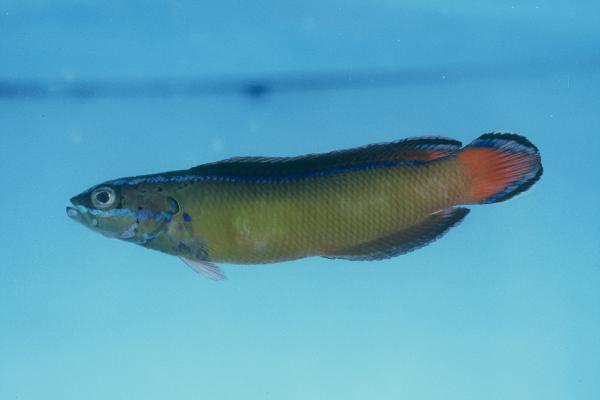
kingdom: Animalia
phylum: Chordata
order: Perciformes
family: Pseudochromidae
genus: Pseudochromis
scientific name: Pseudochromis dutoiti
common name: Dutoiti
